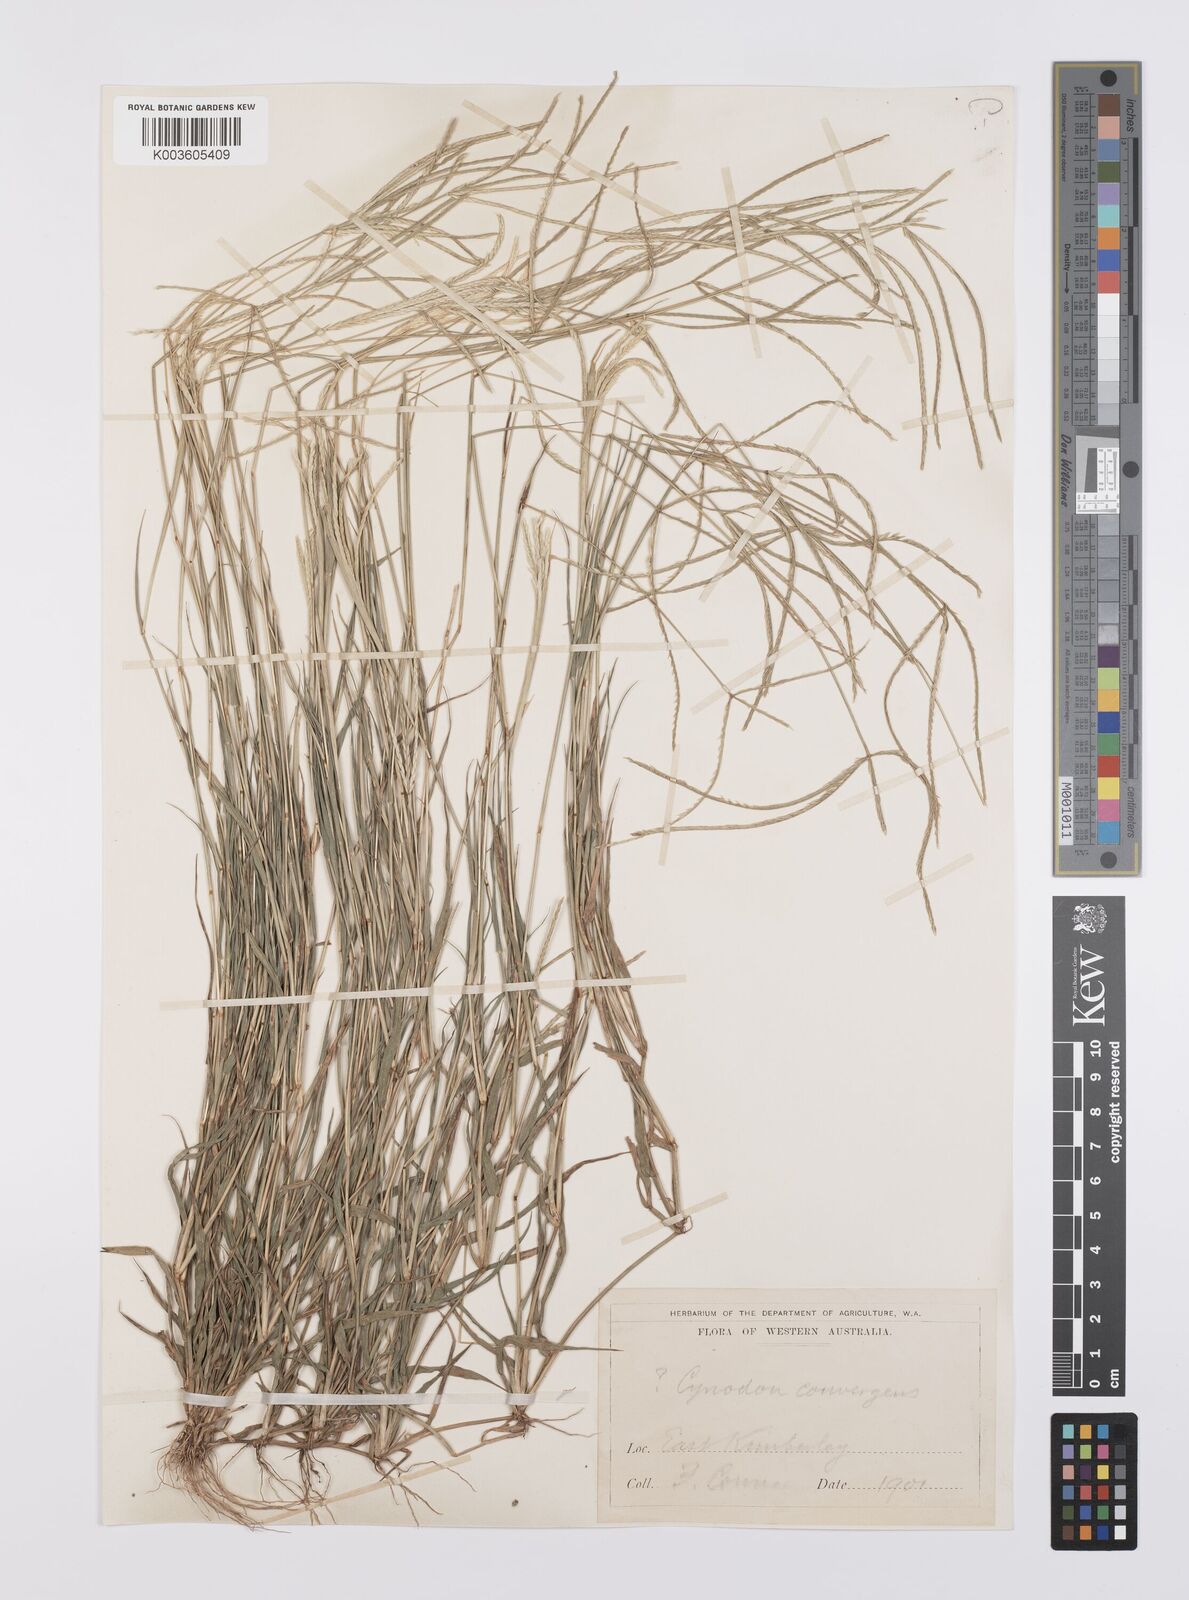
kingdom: Plantae
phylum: Tracheophyta
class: Liliopsida
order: Poales
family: Poaceae
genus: Cynodon
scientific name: Cynodon
